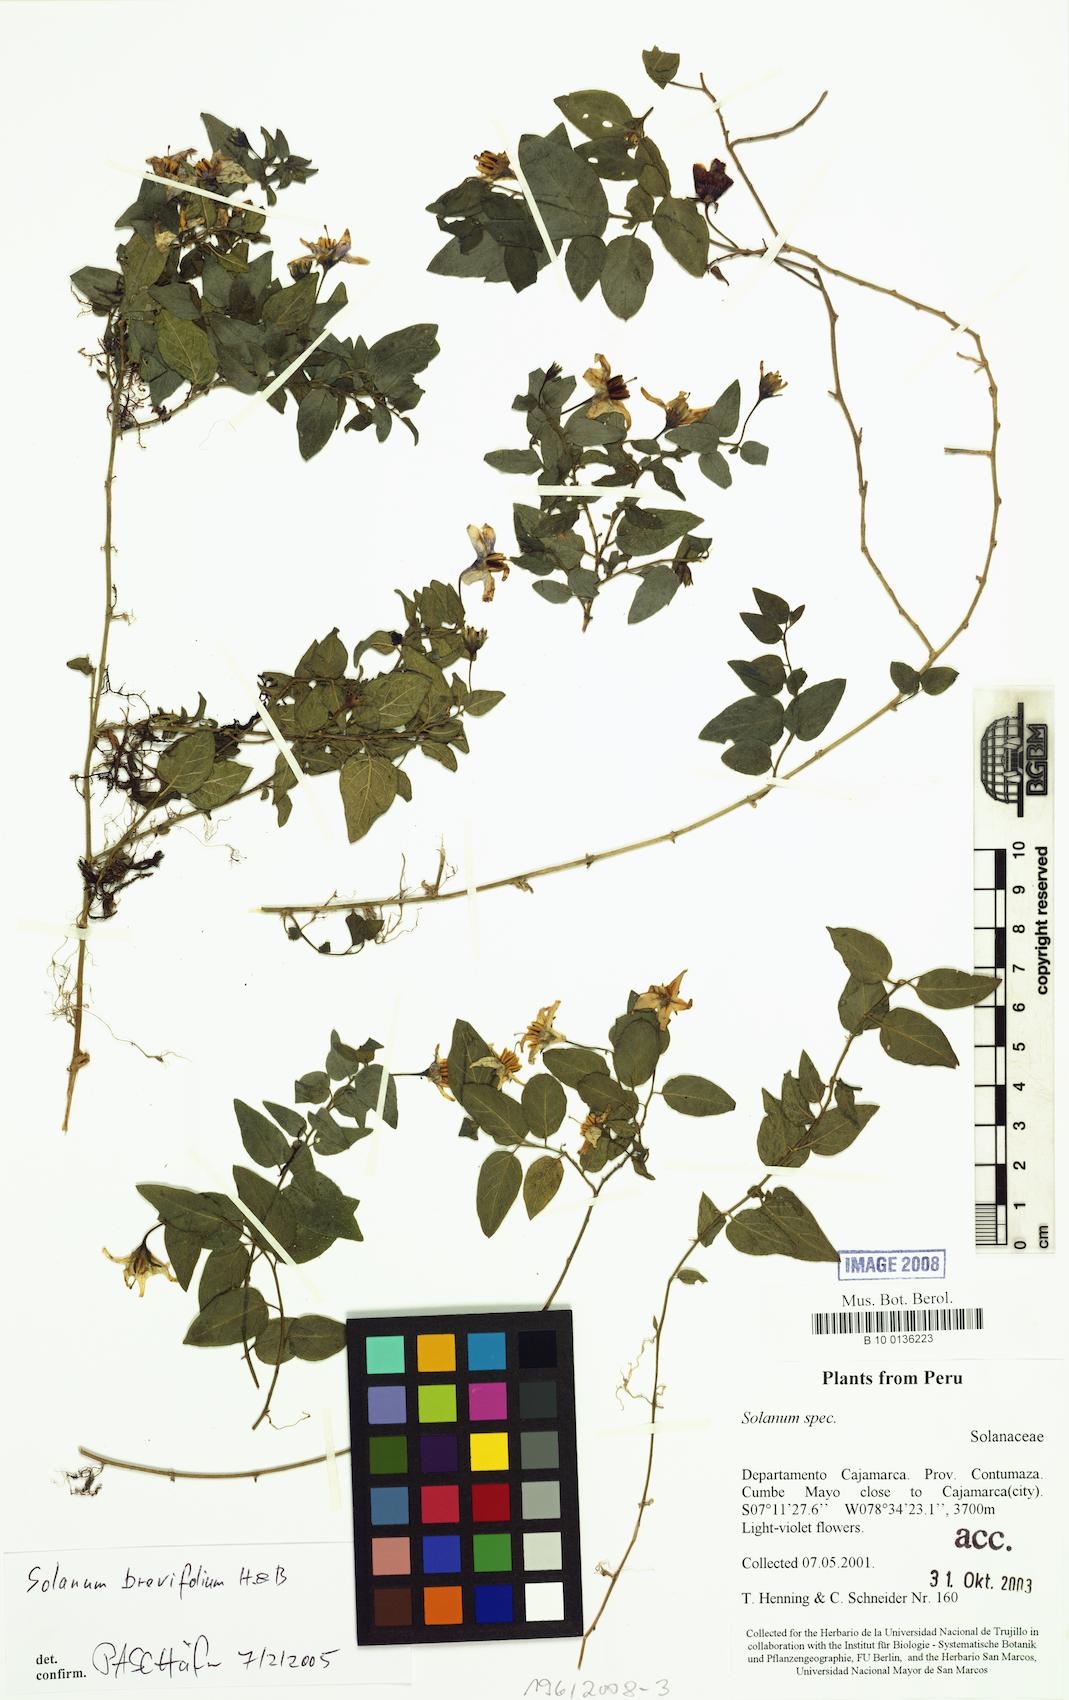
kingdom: Plantae
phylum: Tracheophyta
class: Magnoliopsida
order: Solanales
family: Solanaceae
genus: Solanum
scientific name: Solanum brevifolium
